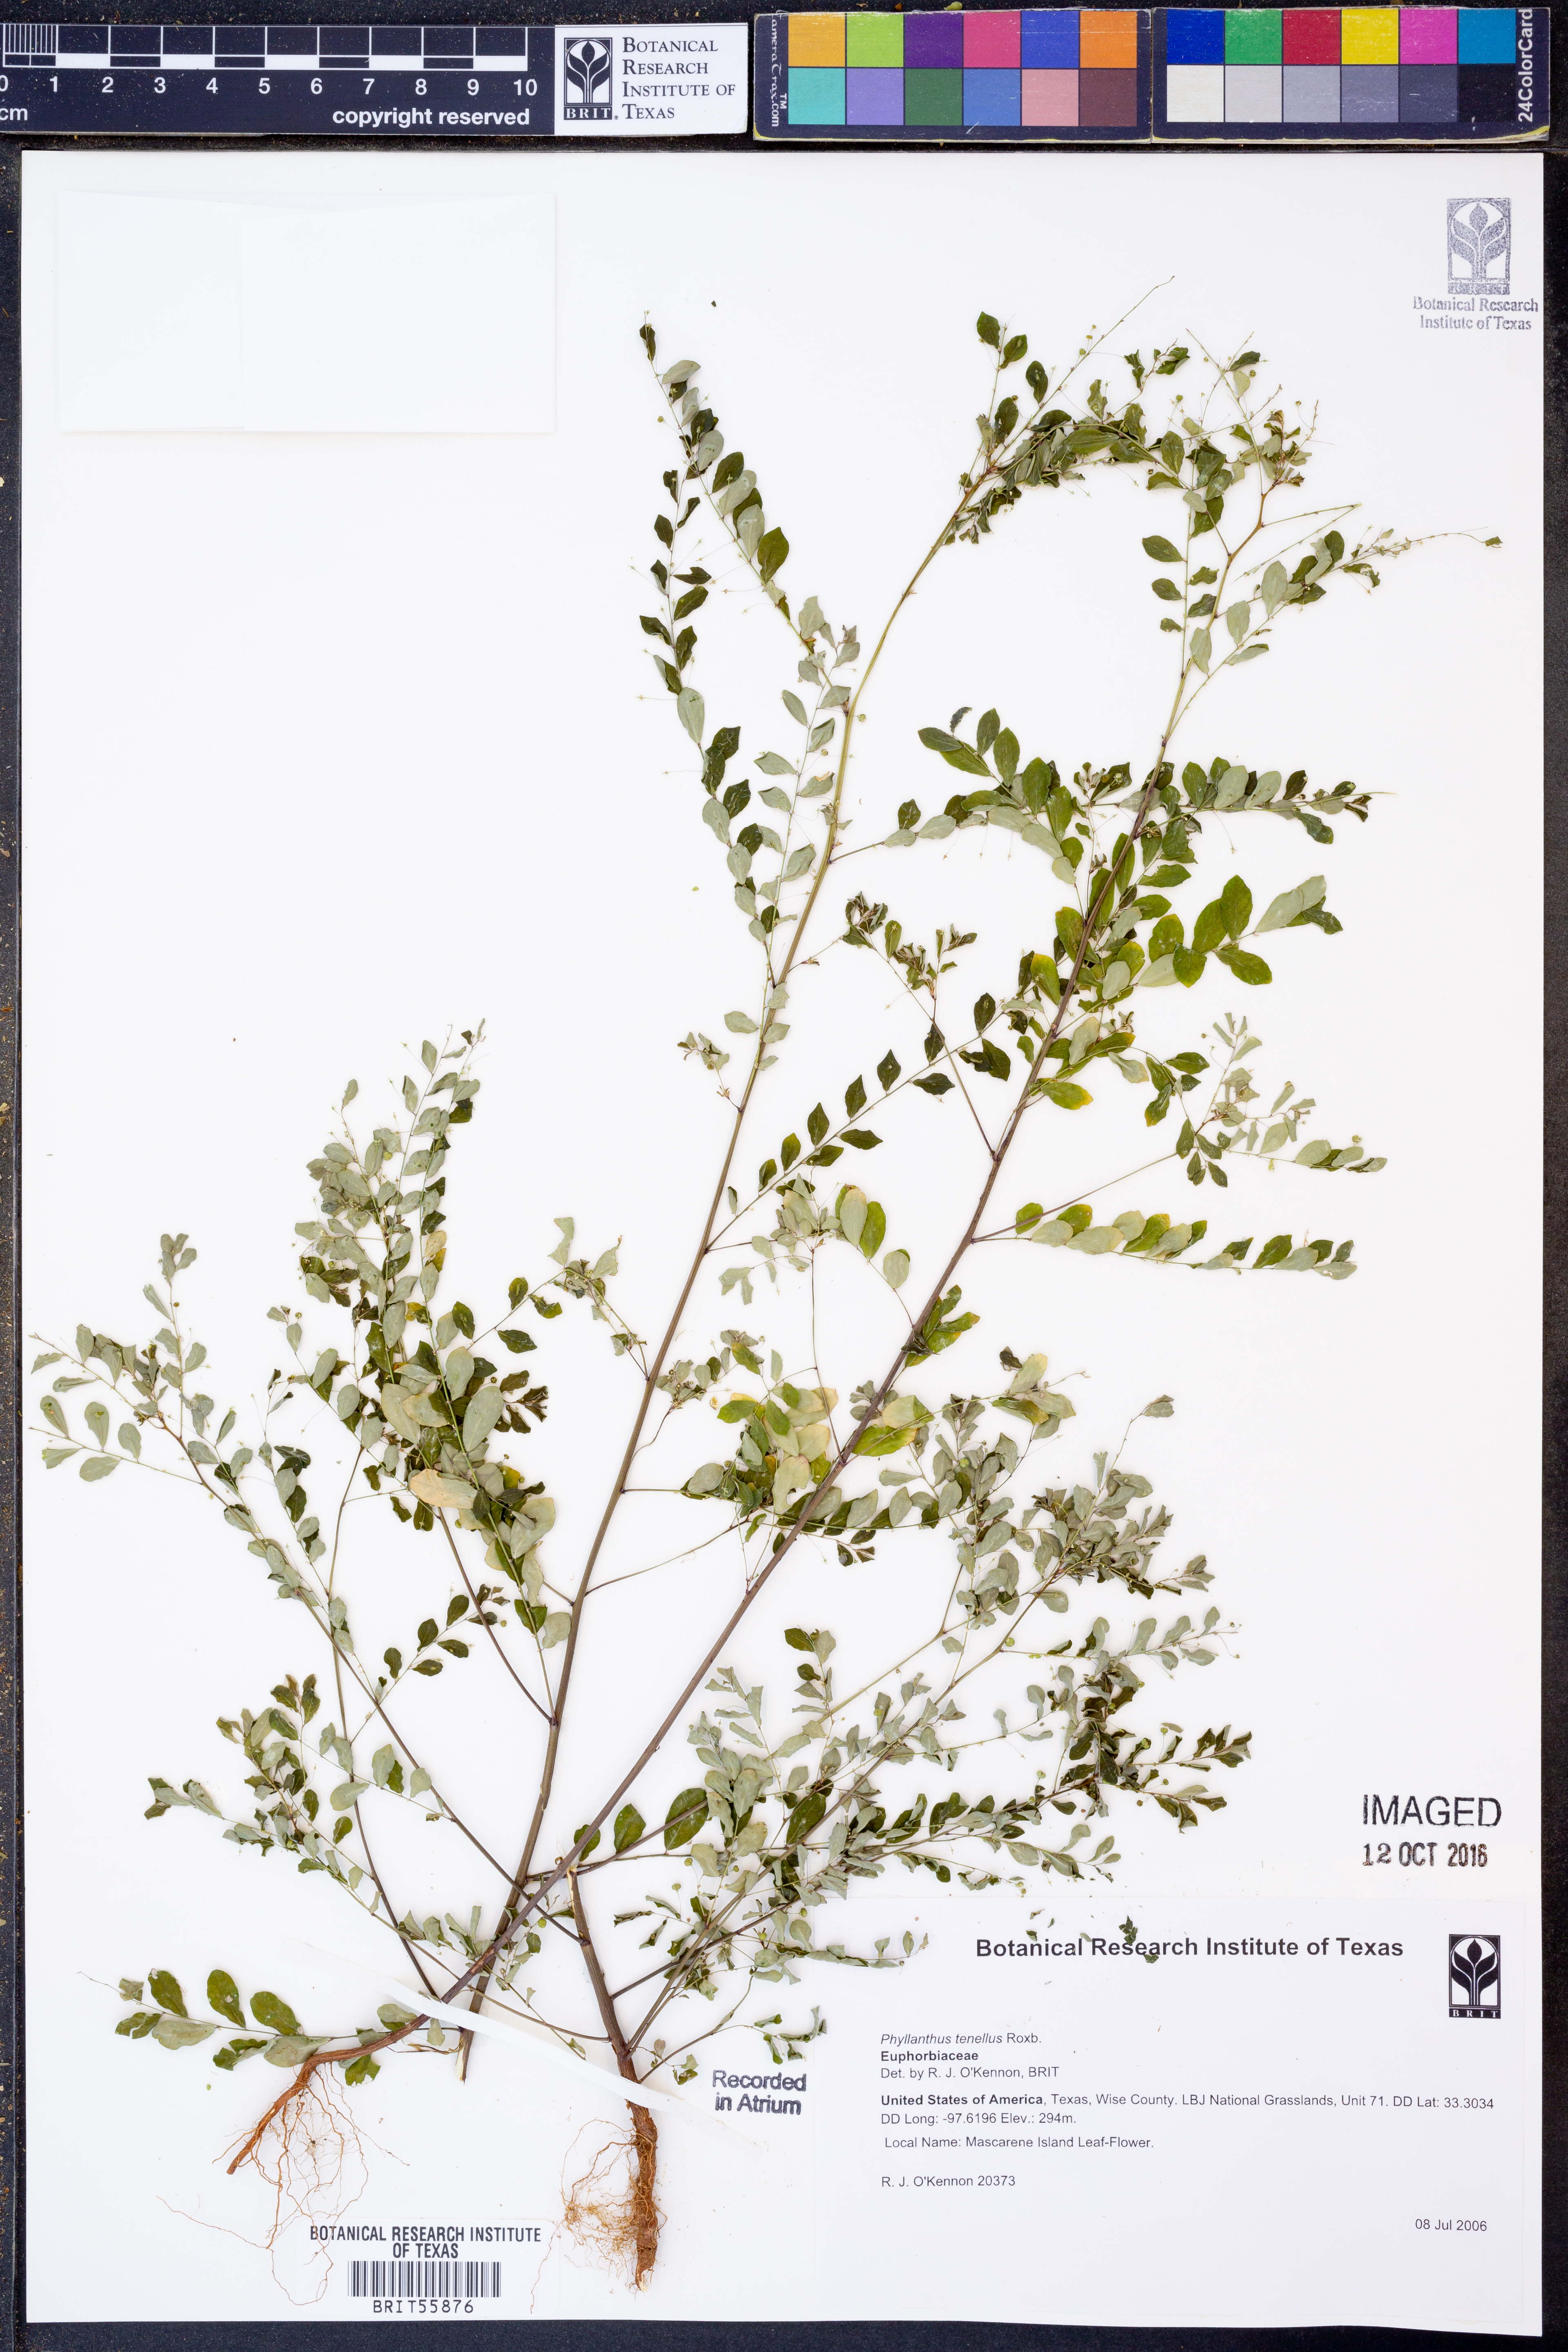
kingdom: Plantae
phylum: Tracheophyta
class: Magnoliopsida
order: Malpighiales
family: Phyllanthaceae
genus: Phyllanthus
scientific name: Phyllanthus tenellus
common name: Mascarene island leaf-flower
